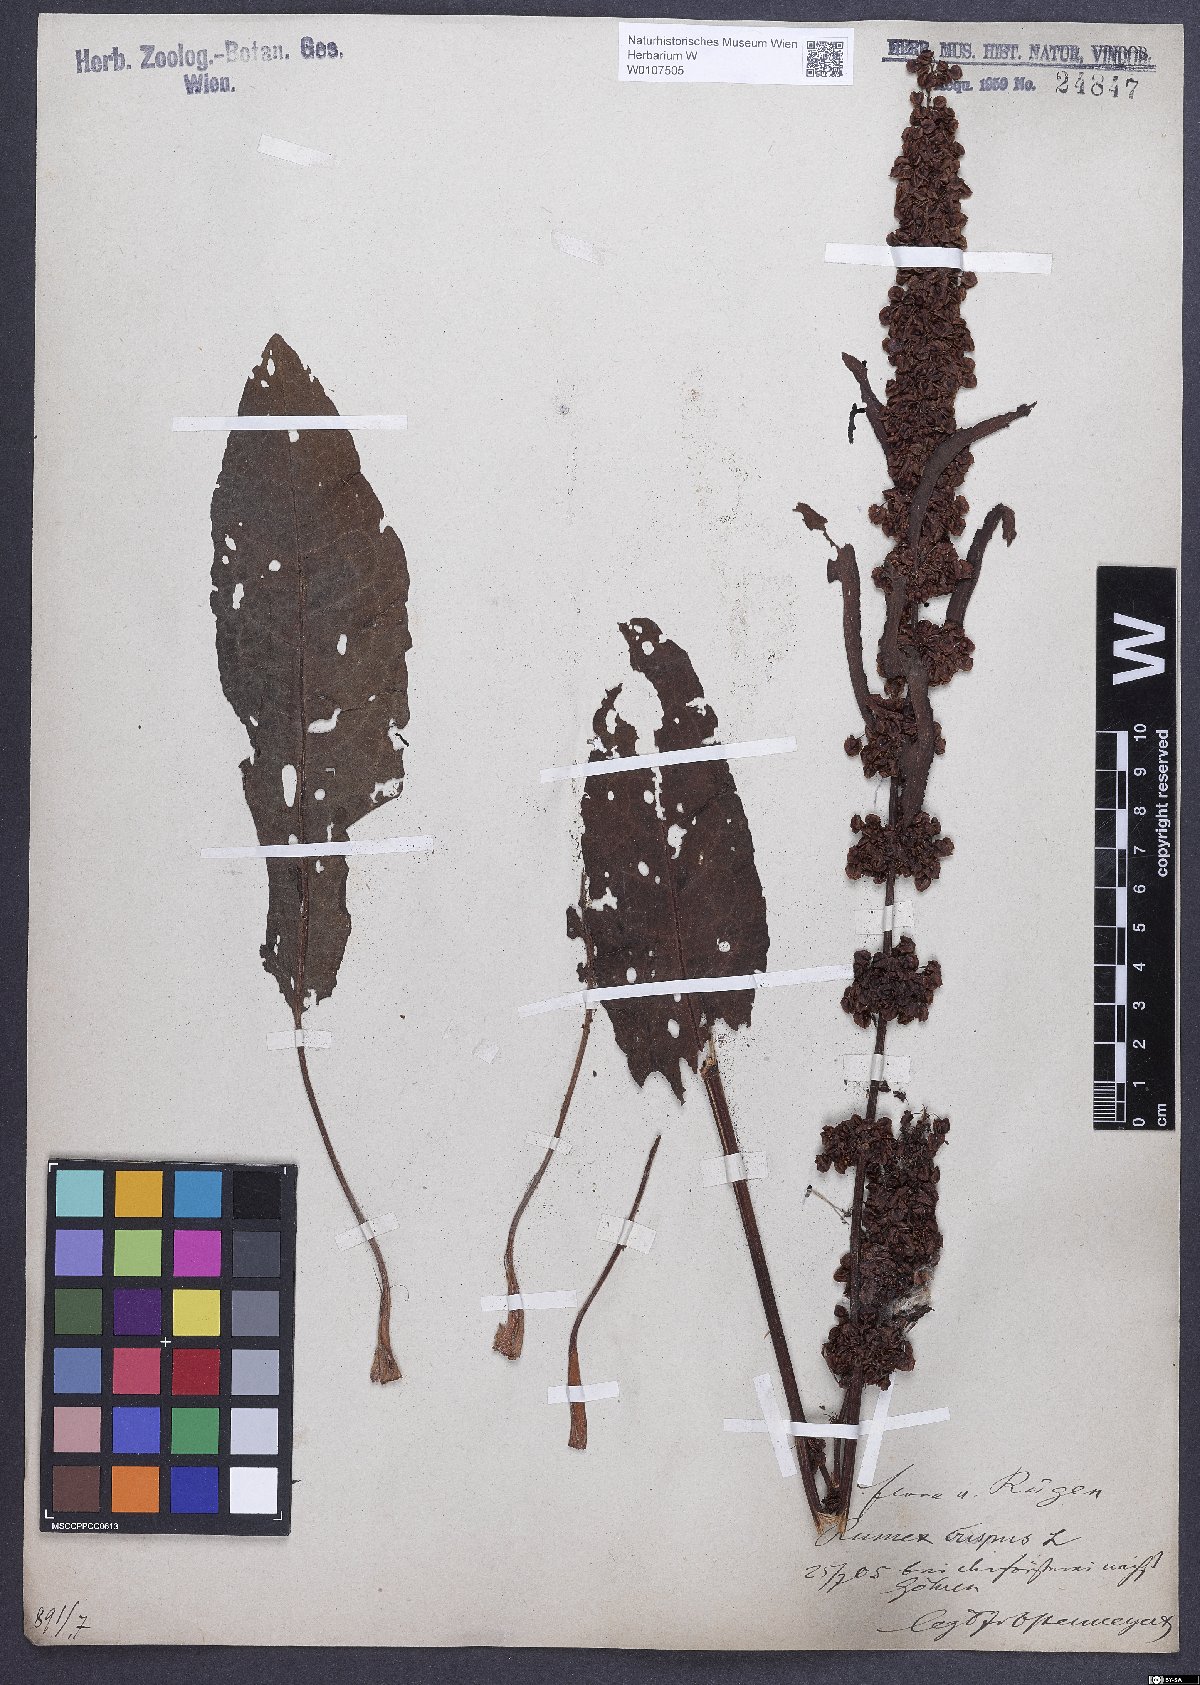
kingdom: Plantae
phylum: Tracheophyta
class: Magnoliopsida
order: Caryophyllales
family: Polygonaceae
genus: Rumex
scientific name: Rumex crispus
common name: Curled dock
